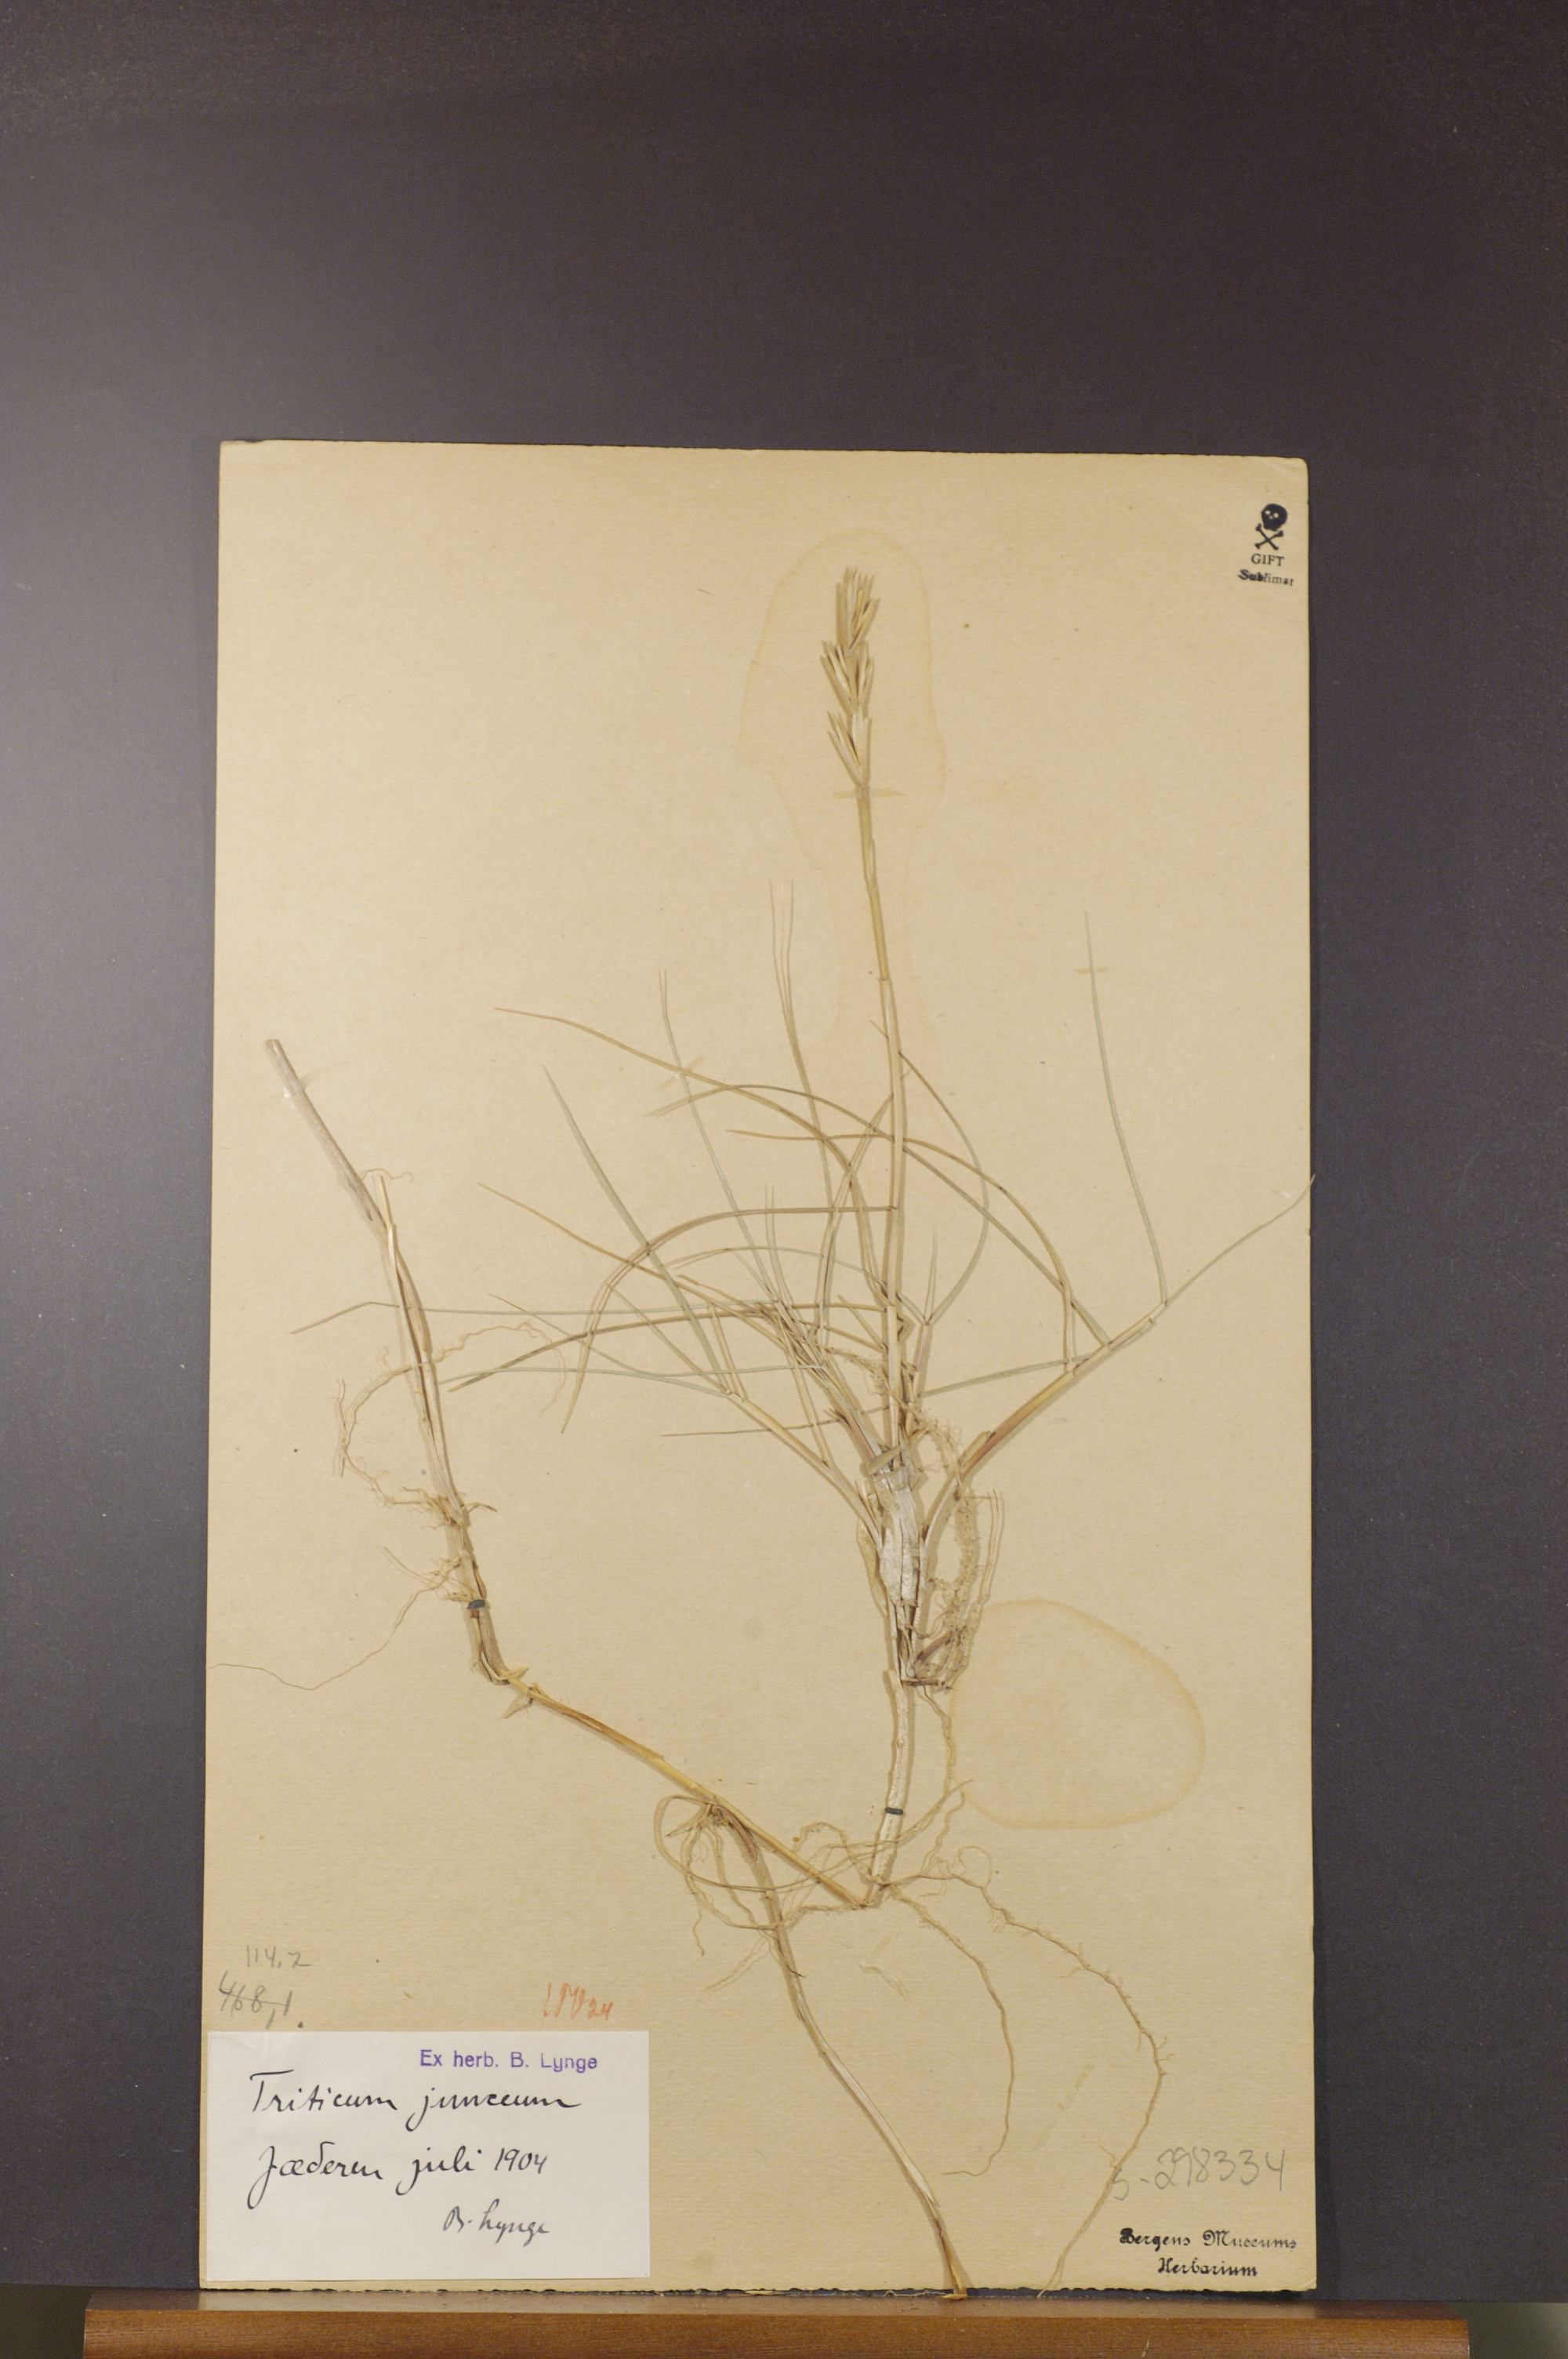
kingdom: Plantae
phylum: Tracheophyta
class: Liliopsida
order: Poales
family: Poaceae
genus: Thinopyrum
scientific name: Thinopyrum junceum
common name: Russian wheatgrass
